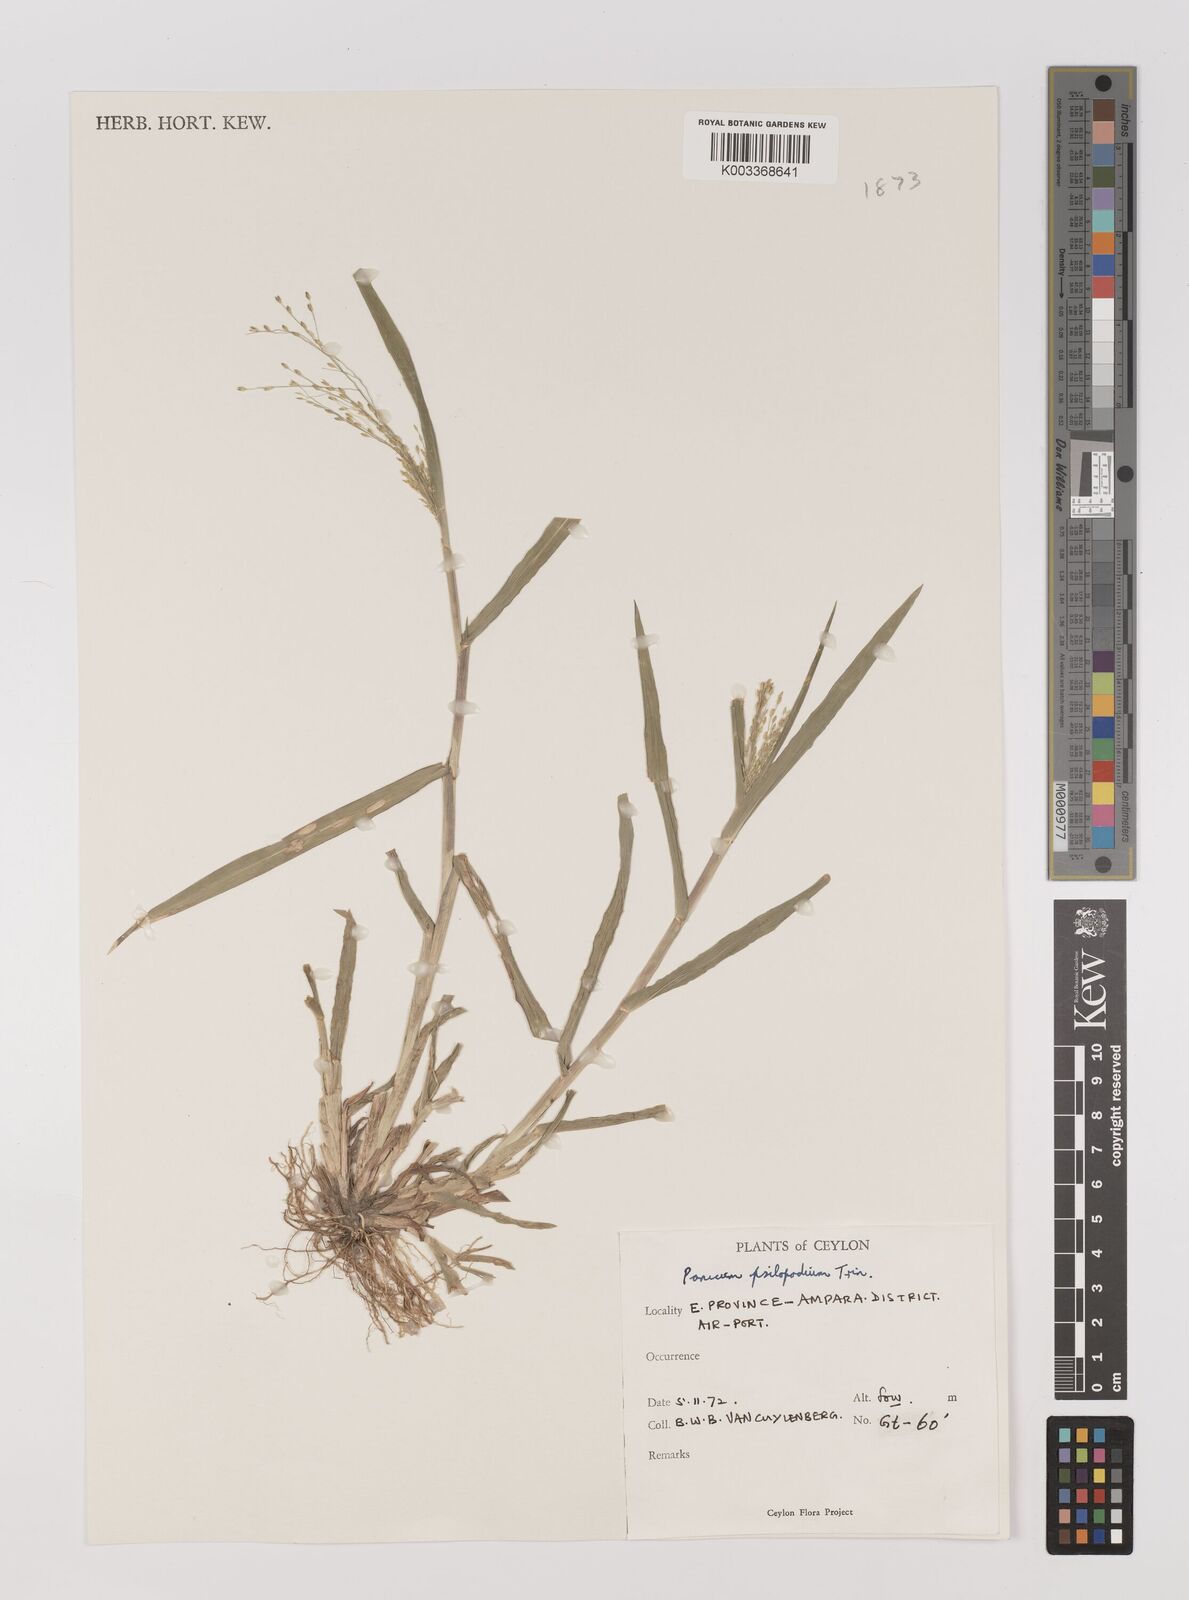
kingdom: Plantae
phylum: Tracheophyta
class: Liliopsida
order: Poales
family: Poaceae
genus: Panicum
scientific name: Panicum sumatrense
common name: Little millet
